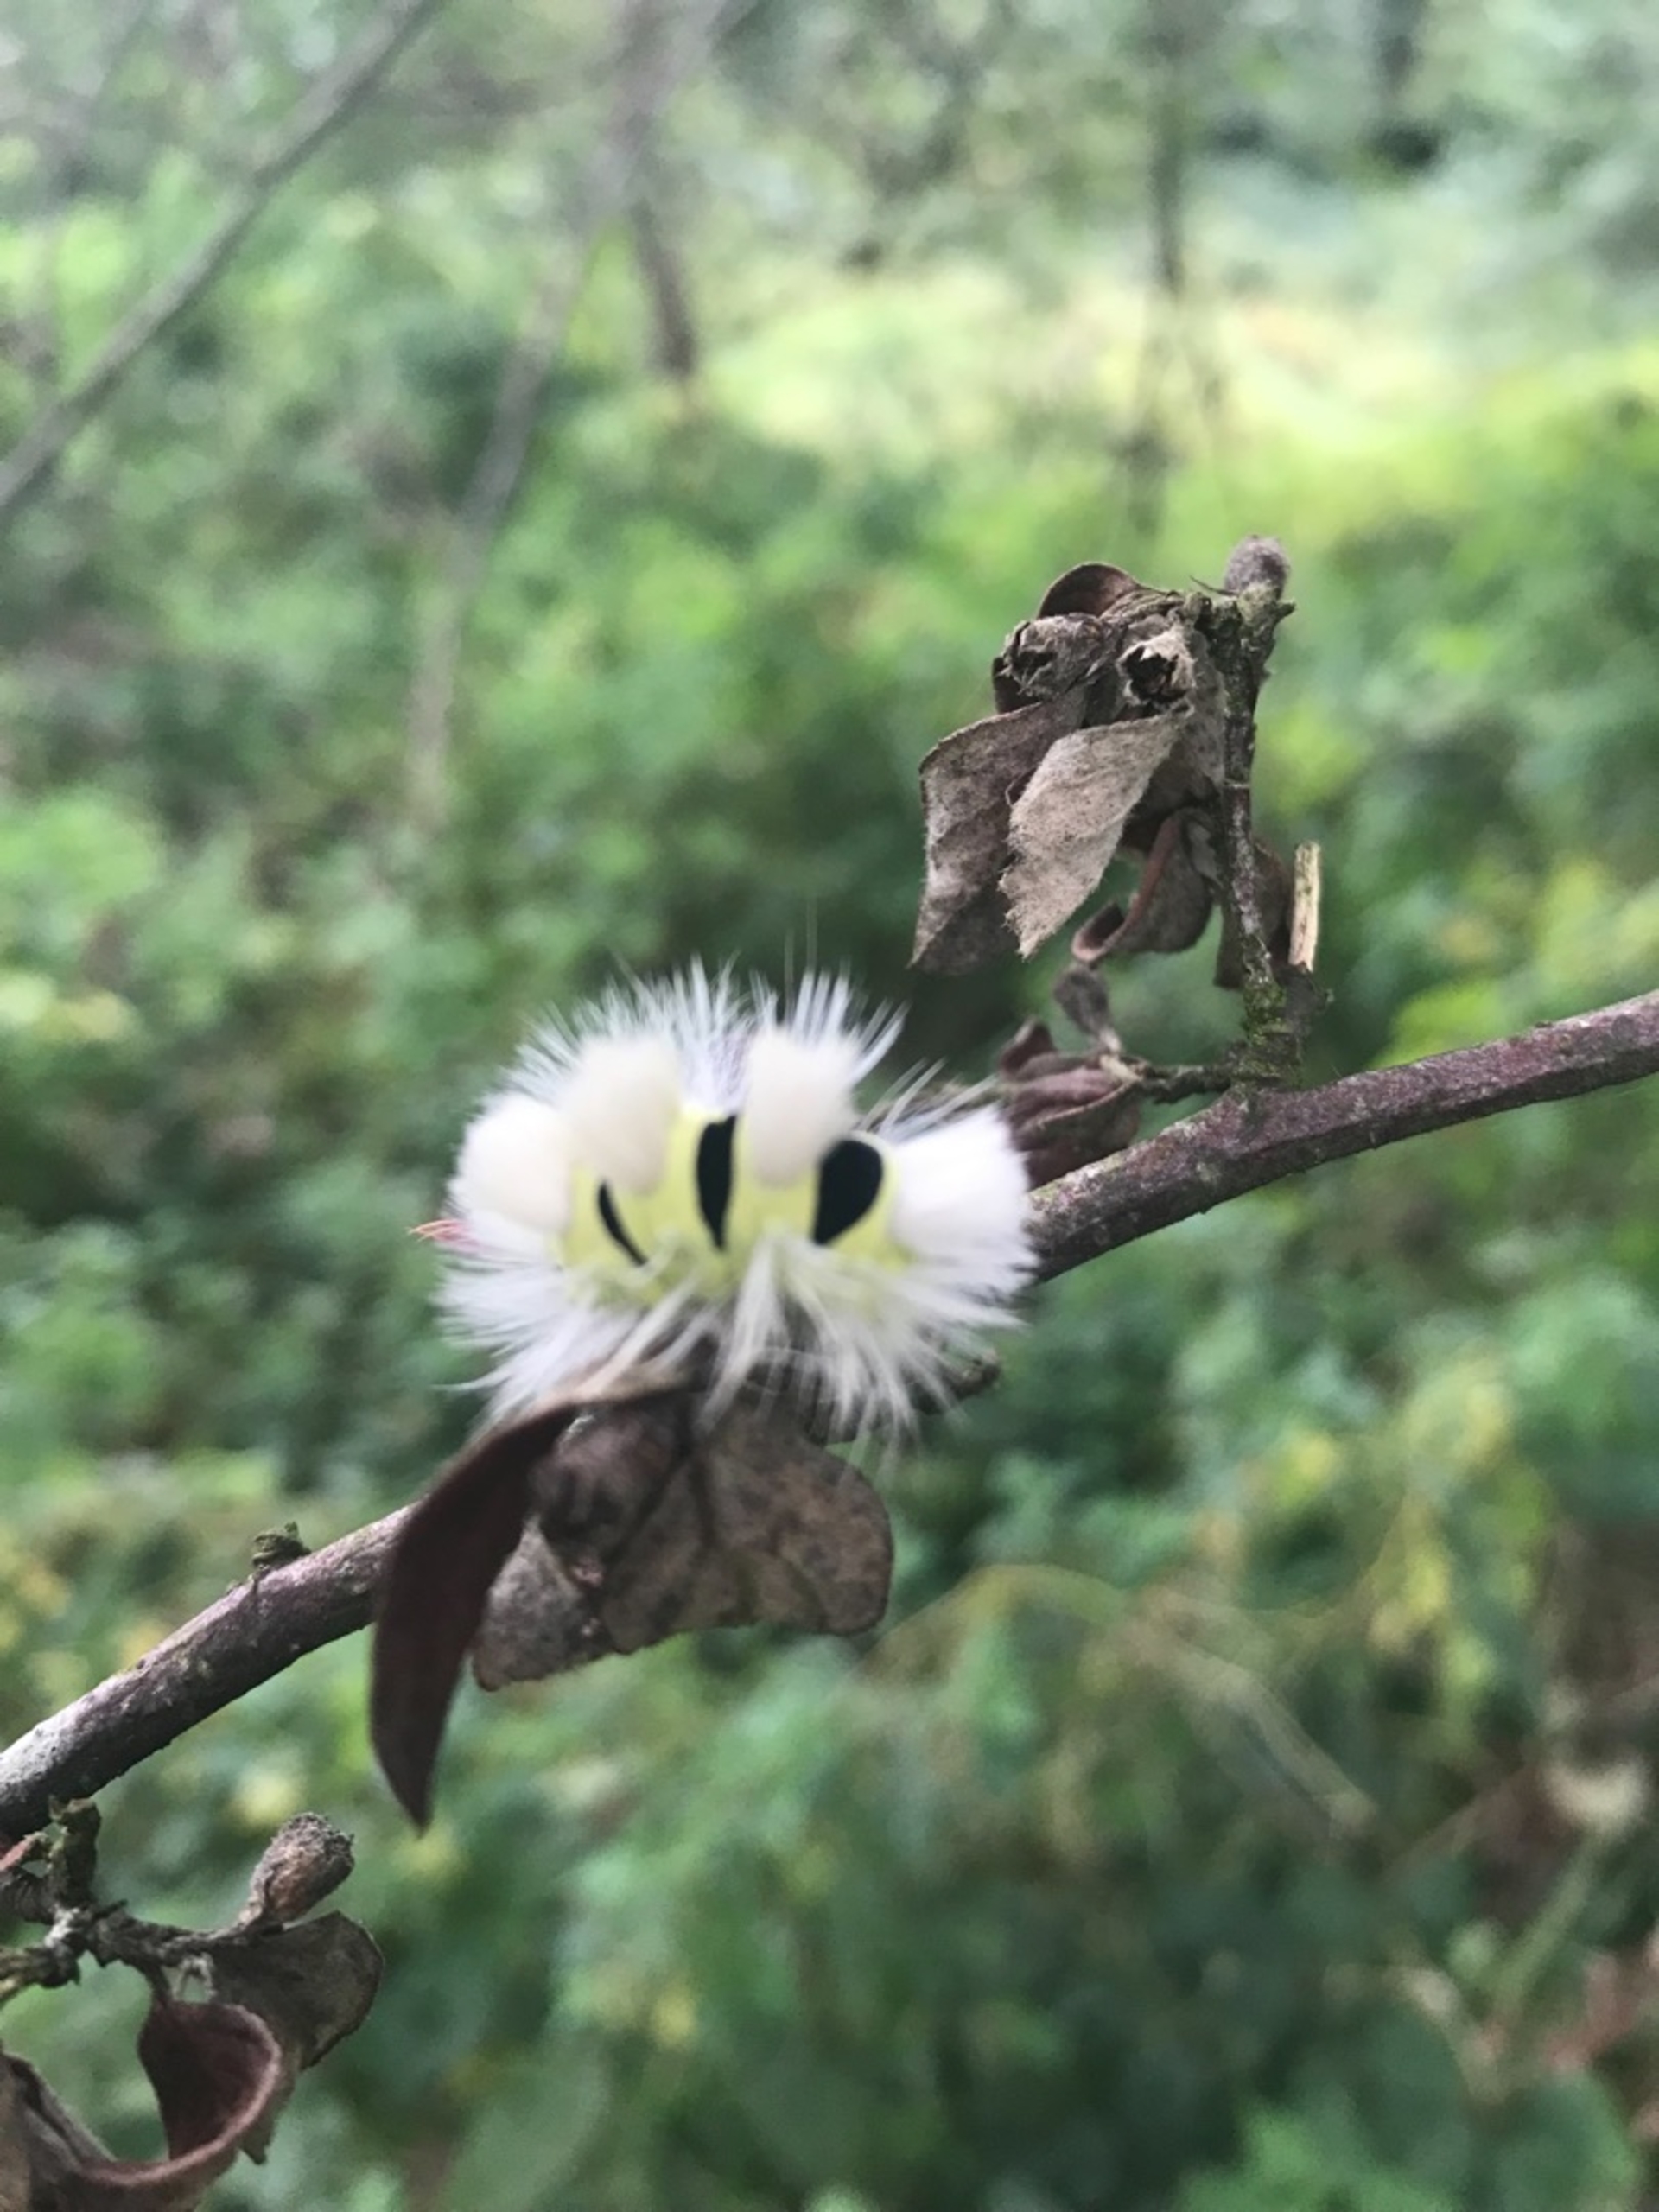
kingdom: Animalia
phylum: Arthropoda
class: Insecta
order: Lepidoptera
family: Erebidae
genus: Calliteara
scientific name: Calliteara pudibunda
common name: Bøgenonne
